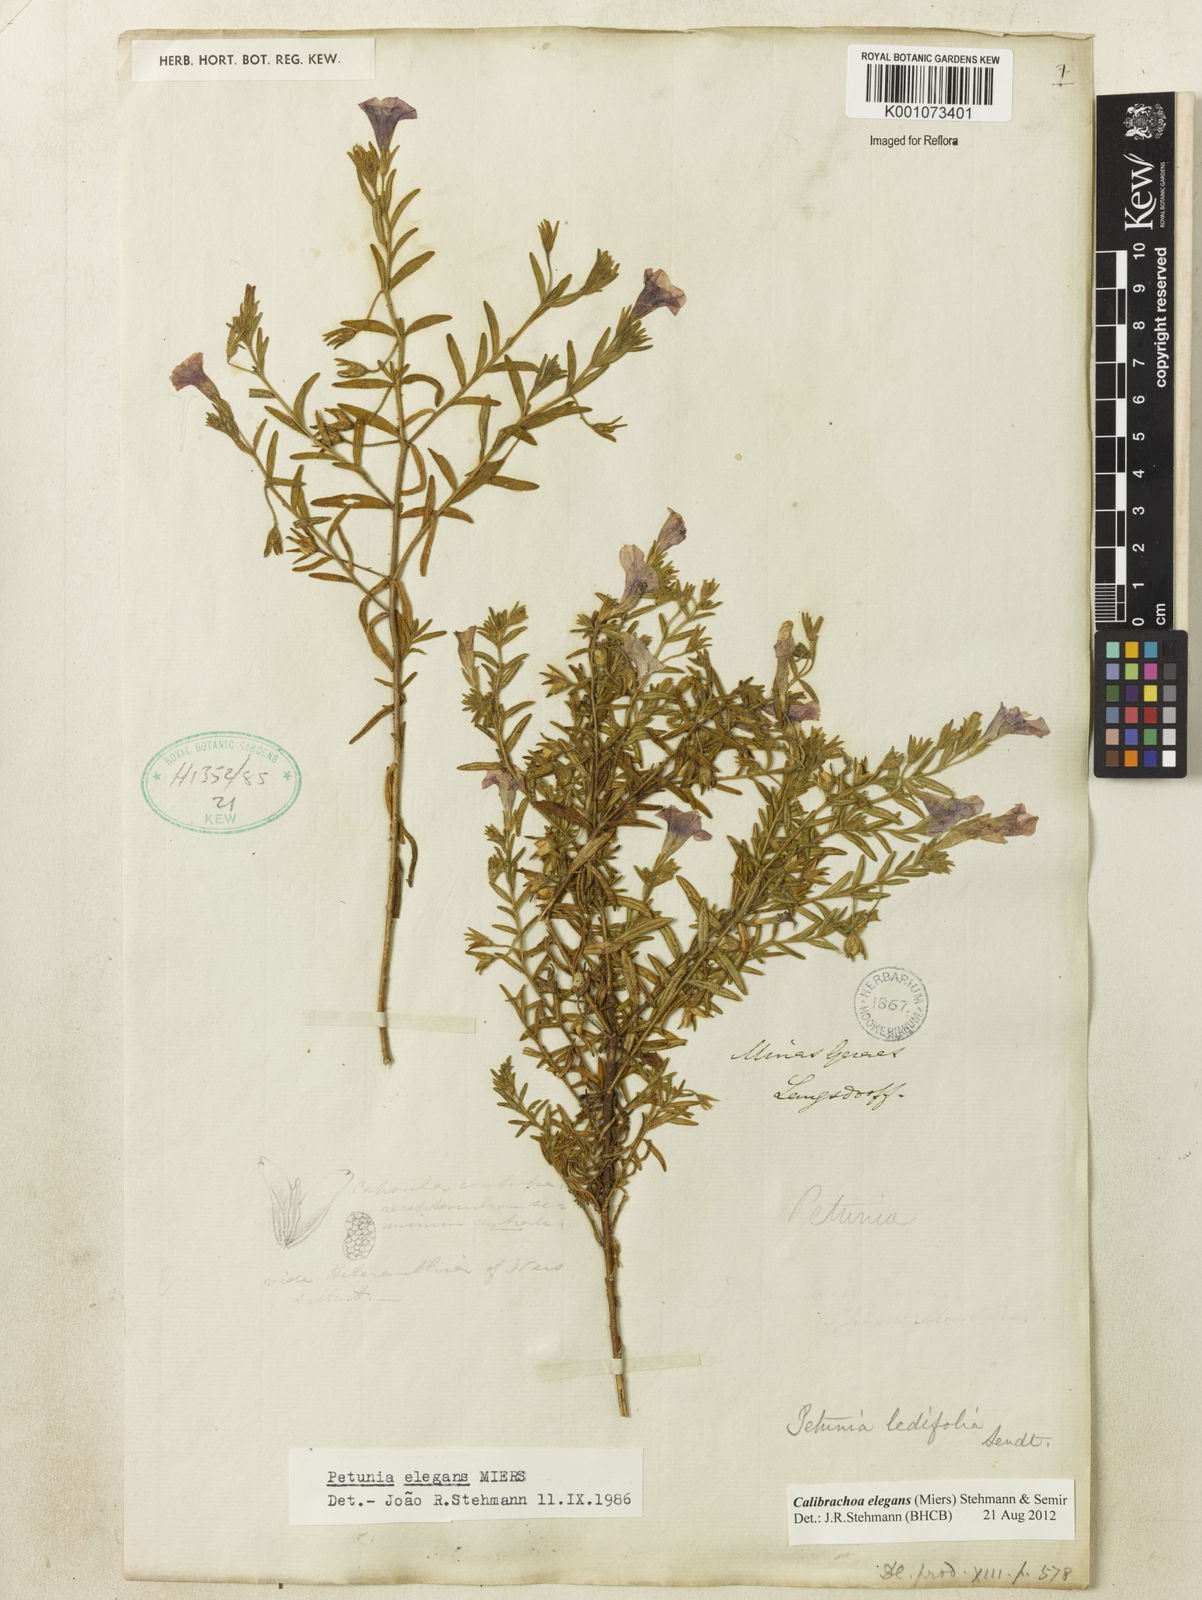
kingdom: Plantae
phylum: Tracheophyta
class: Magnoliopsida
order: Solanales
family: Solanaceae
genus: Calibrachoa
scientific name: Calibrachoa elegans
